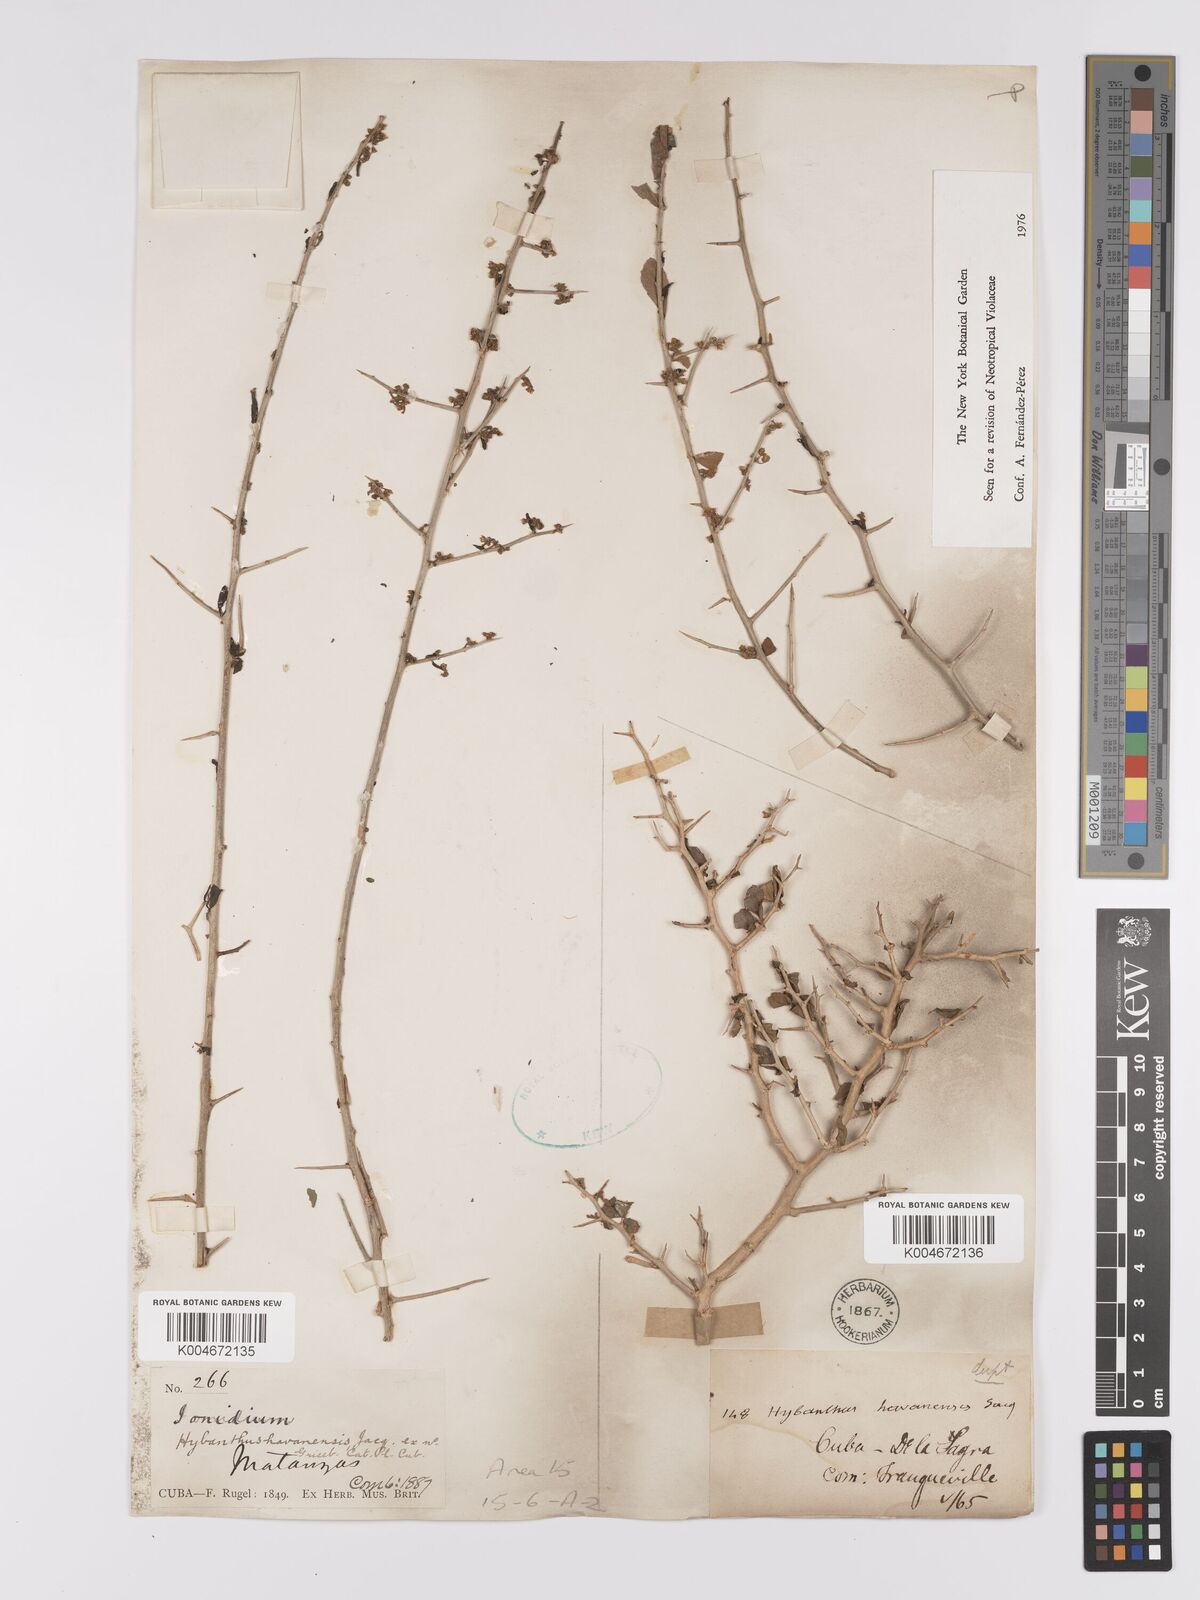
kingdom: Plantae
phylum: Tracheophyta
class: Magnoliopsida
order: Malpighiales
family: Violaceae
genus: Hybanthus
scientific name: Hybanthus havanensis
